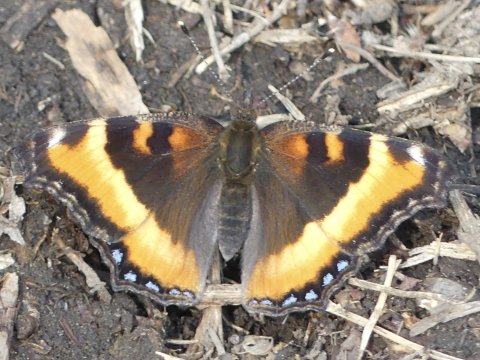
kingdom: Animalia
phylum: Arthropoda
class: Insecta
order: Lepidoptera
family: Nymphalidae
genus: Aglais
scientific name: Aglais milberti
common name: Milbert's Tortoiseshell
